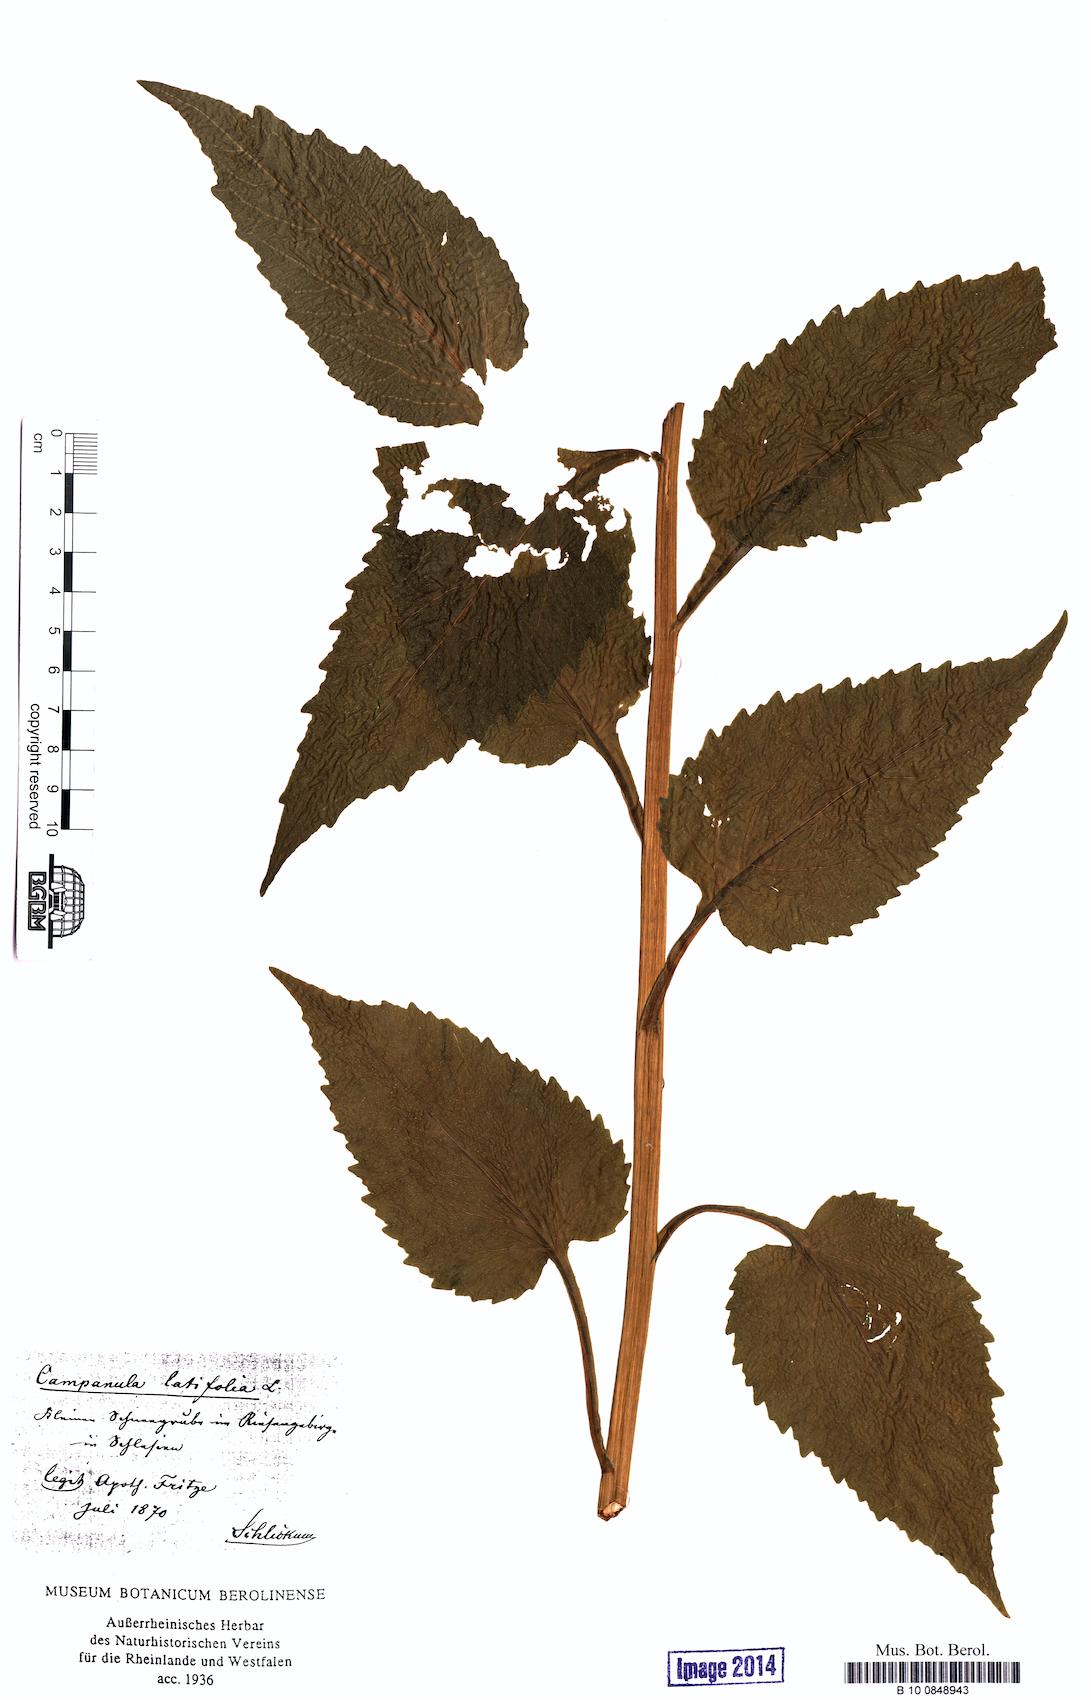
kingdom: Plantae
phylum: Tracheophyta
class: Magnoliopsida
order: Asterales
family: Campanulaceae
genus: Campanula
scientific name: Campanula latifolia
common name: Giant bellflower
